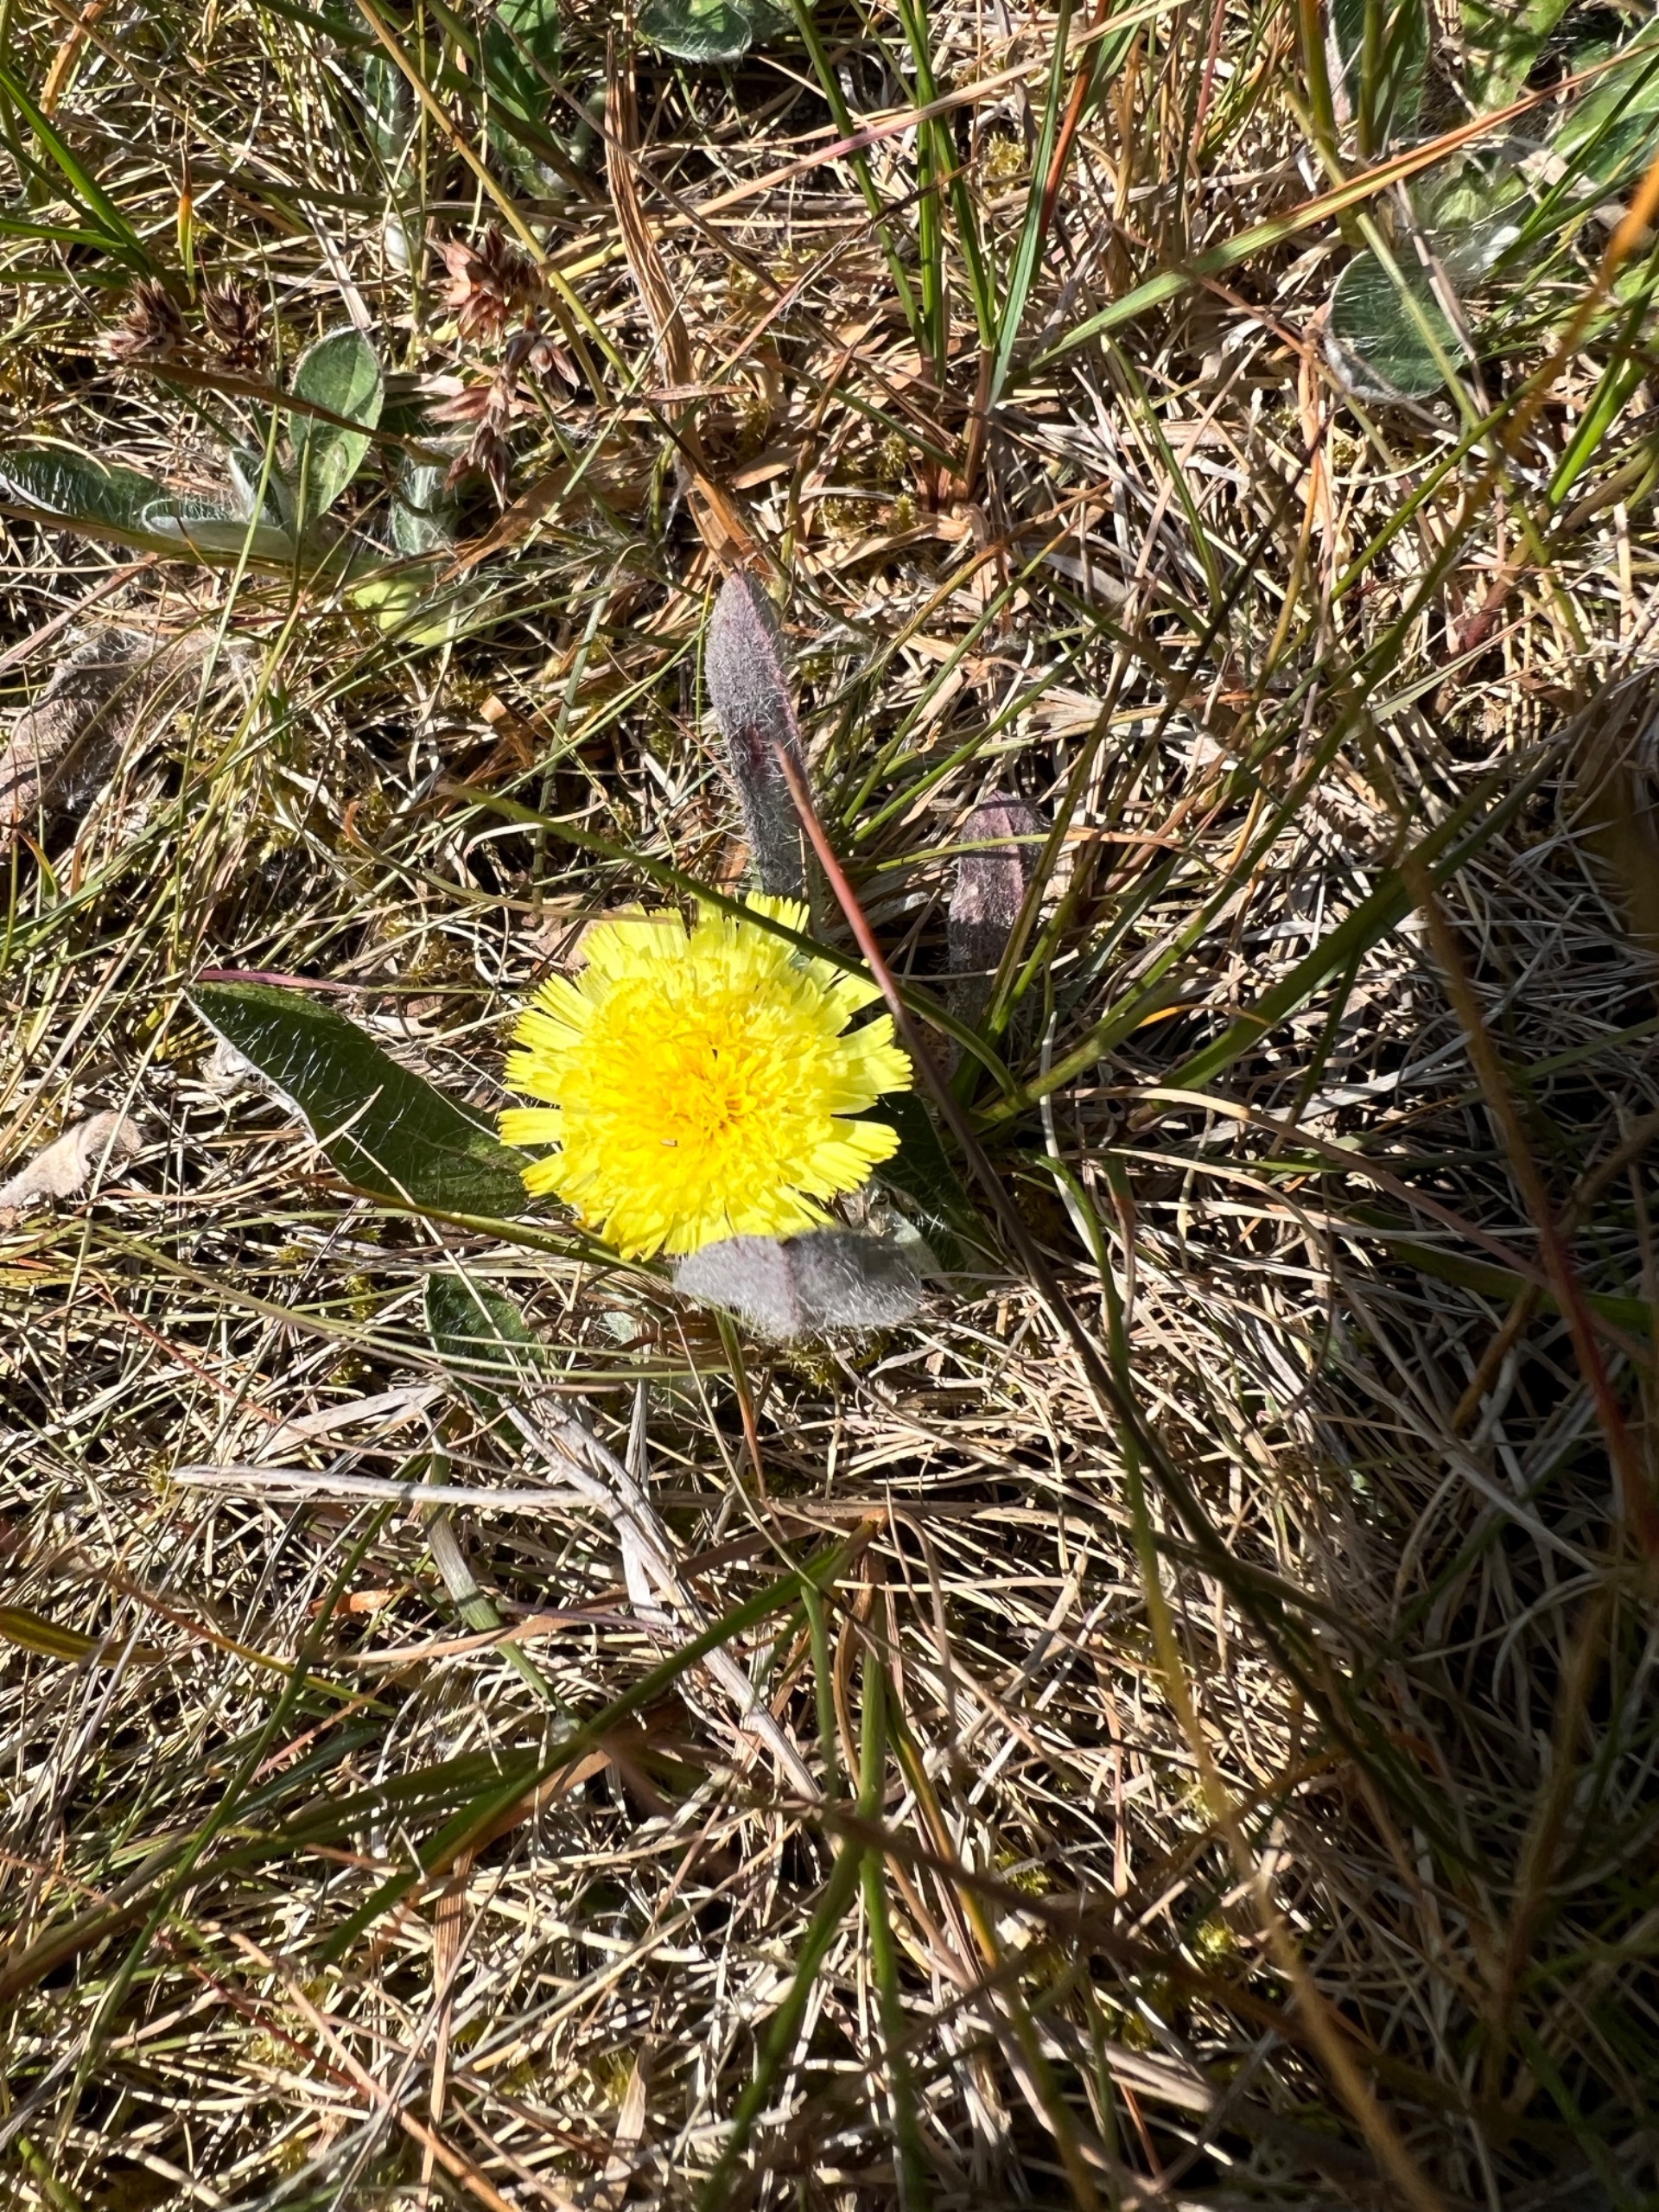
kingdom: Plantae
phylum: Tracheophyta
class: Magnoliopsida
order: Asterales
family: Asteraceae
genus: Pilosella
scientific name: Pilosella officinarum
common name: Håret høgeurt
